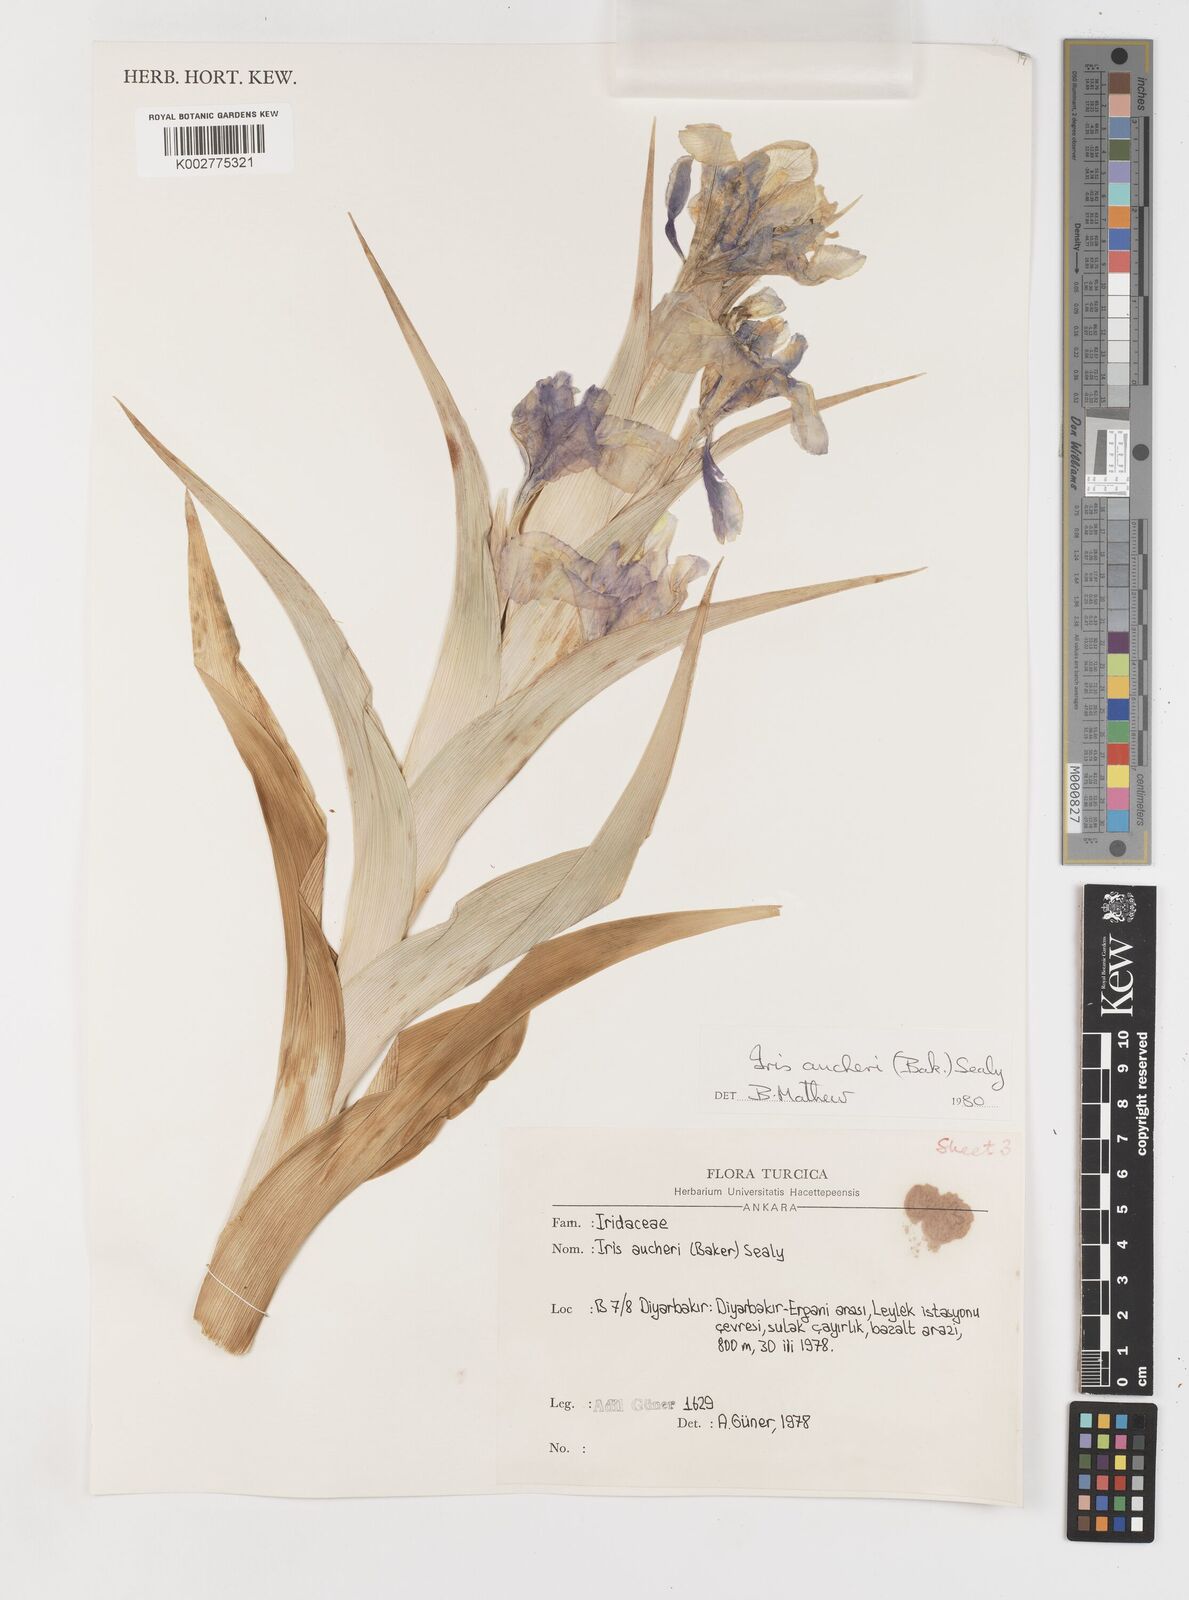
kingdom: Plantae
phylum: Tracheophyta
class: Liliopsida
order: Asparagales
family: Iridaceae
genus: Iris
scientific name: Iris aucheri
